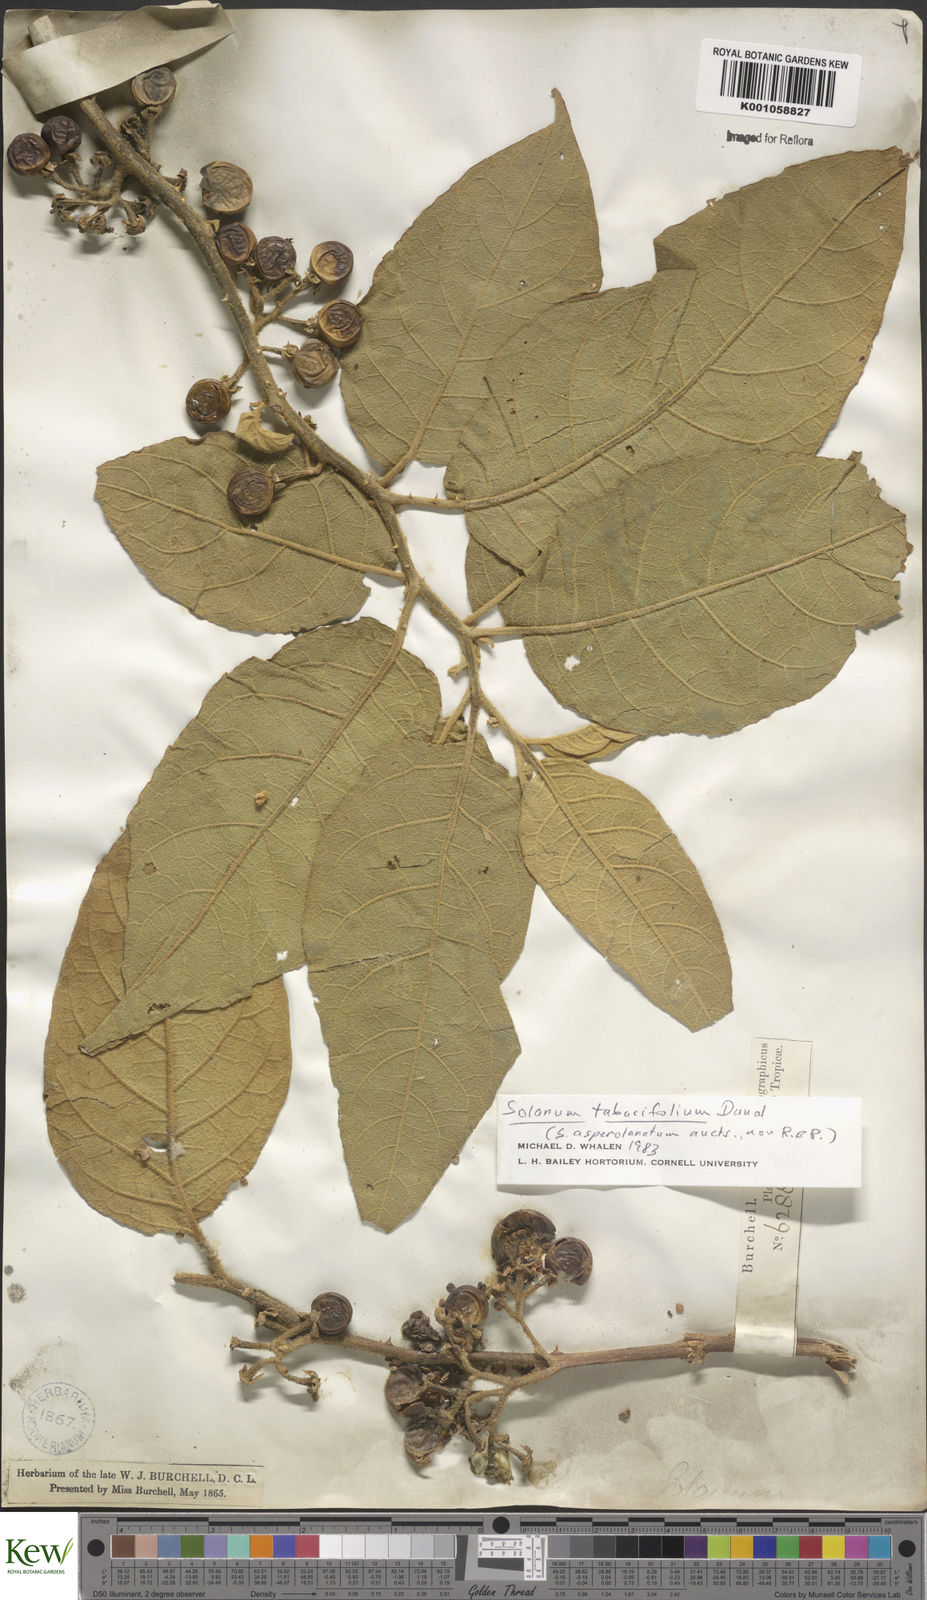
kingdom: Plantae
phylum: Tracheophyta
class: Magnoliopsida
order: Solanales
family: Solanaceae
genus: Solanum
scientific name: Solanum scuticum
